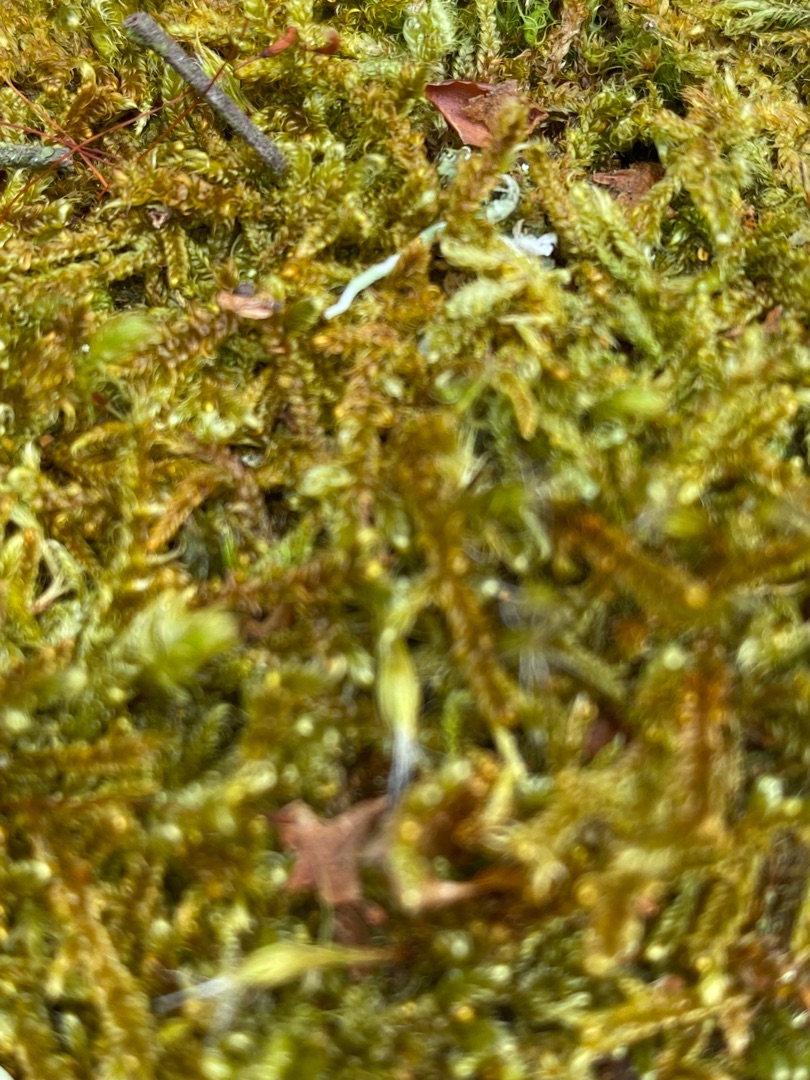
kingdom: Plantae
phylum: Bryophyta
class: Bryopsida
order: Hypnales
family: Hypnaceae
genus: Hypnum
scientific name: Hypnum cupressiforme
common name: Almindelig cypresmos
